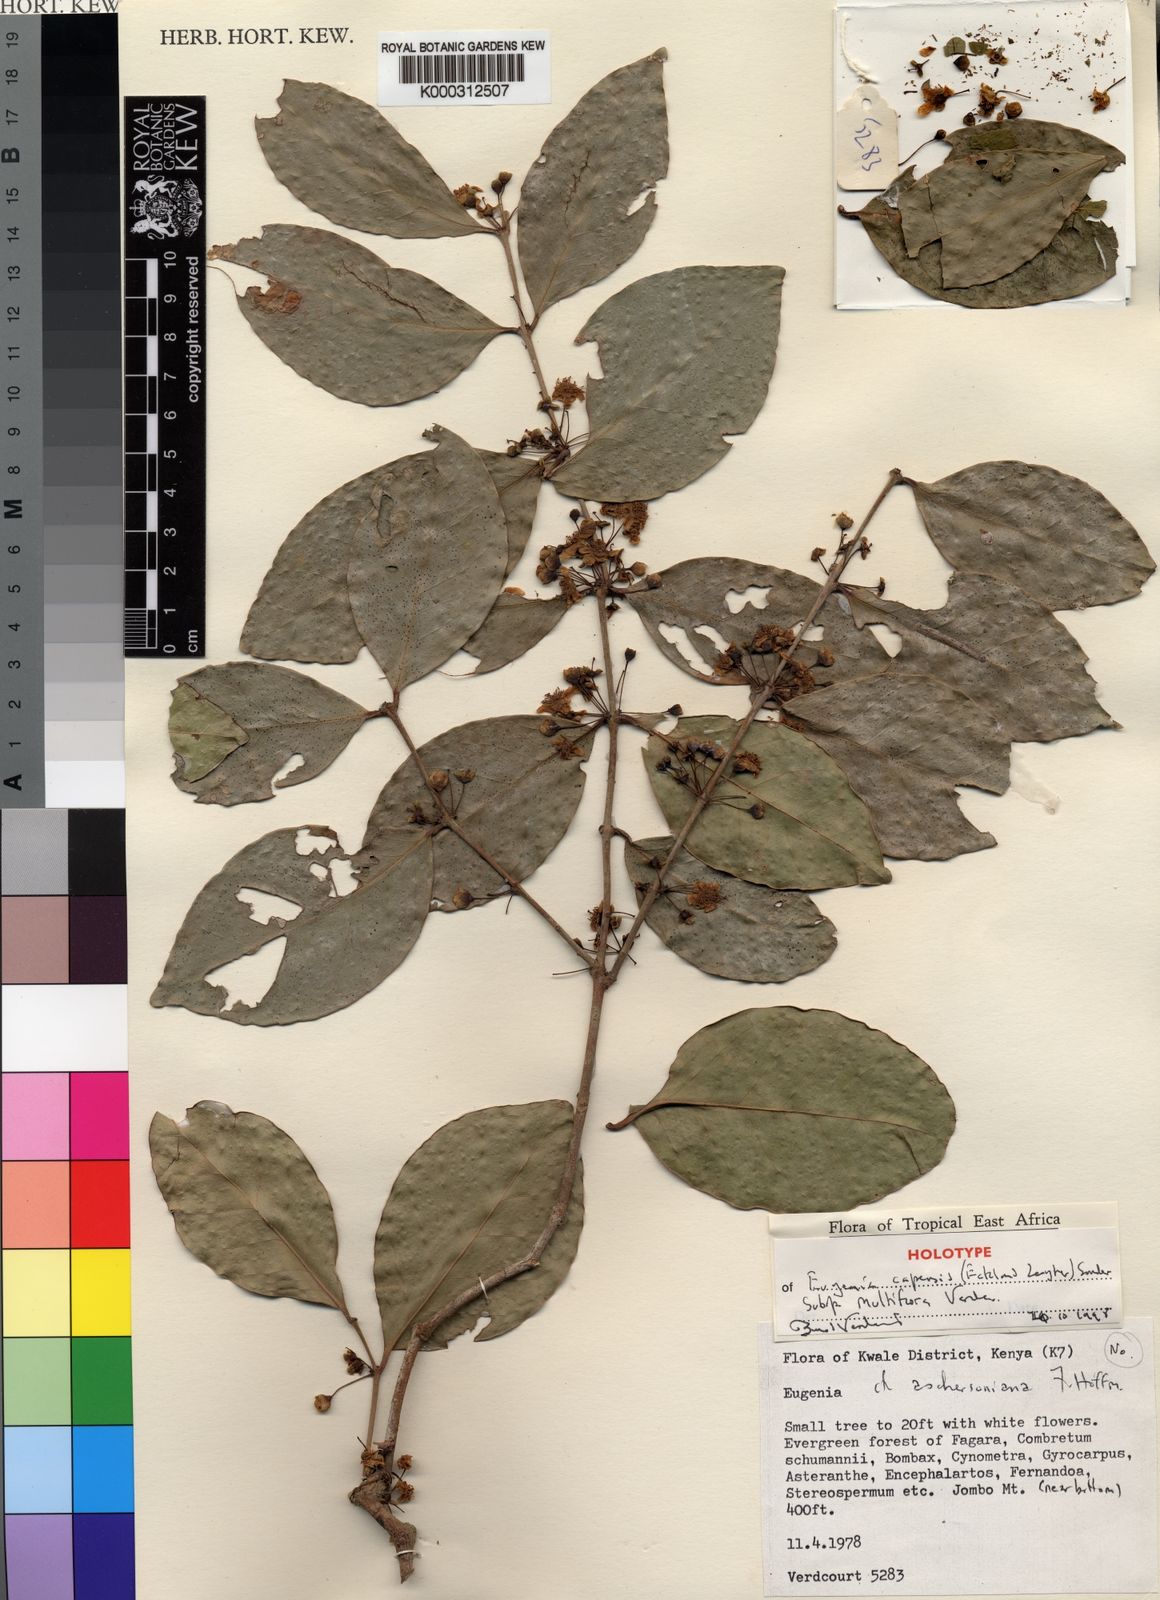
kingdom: Plantae
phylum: Tracheophyta
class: Magnoliopsida
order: Myrtales
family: Myrtaceae
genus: Eugenia
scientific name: Eugenia capensis
